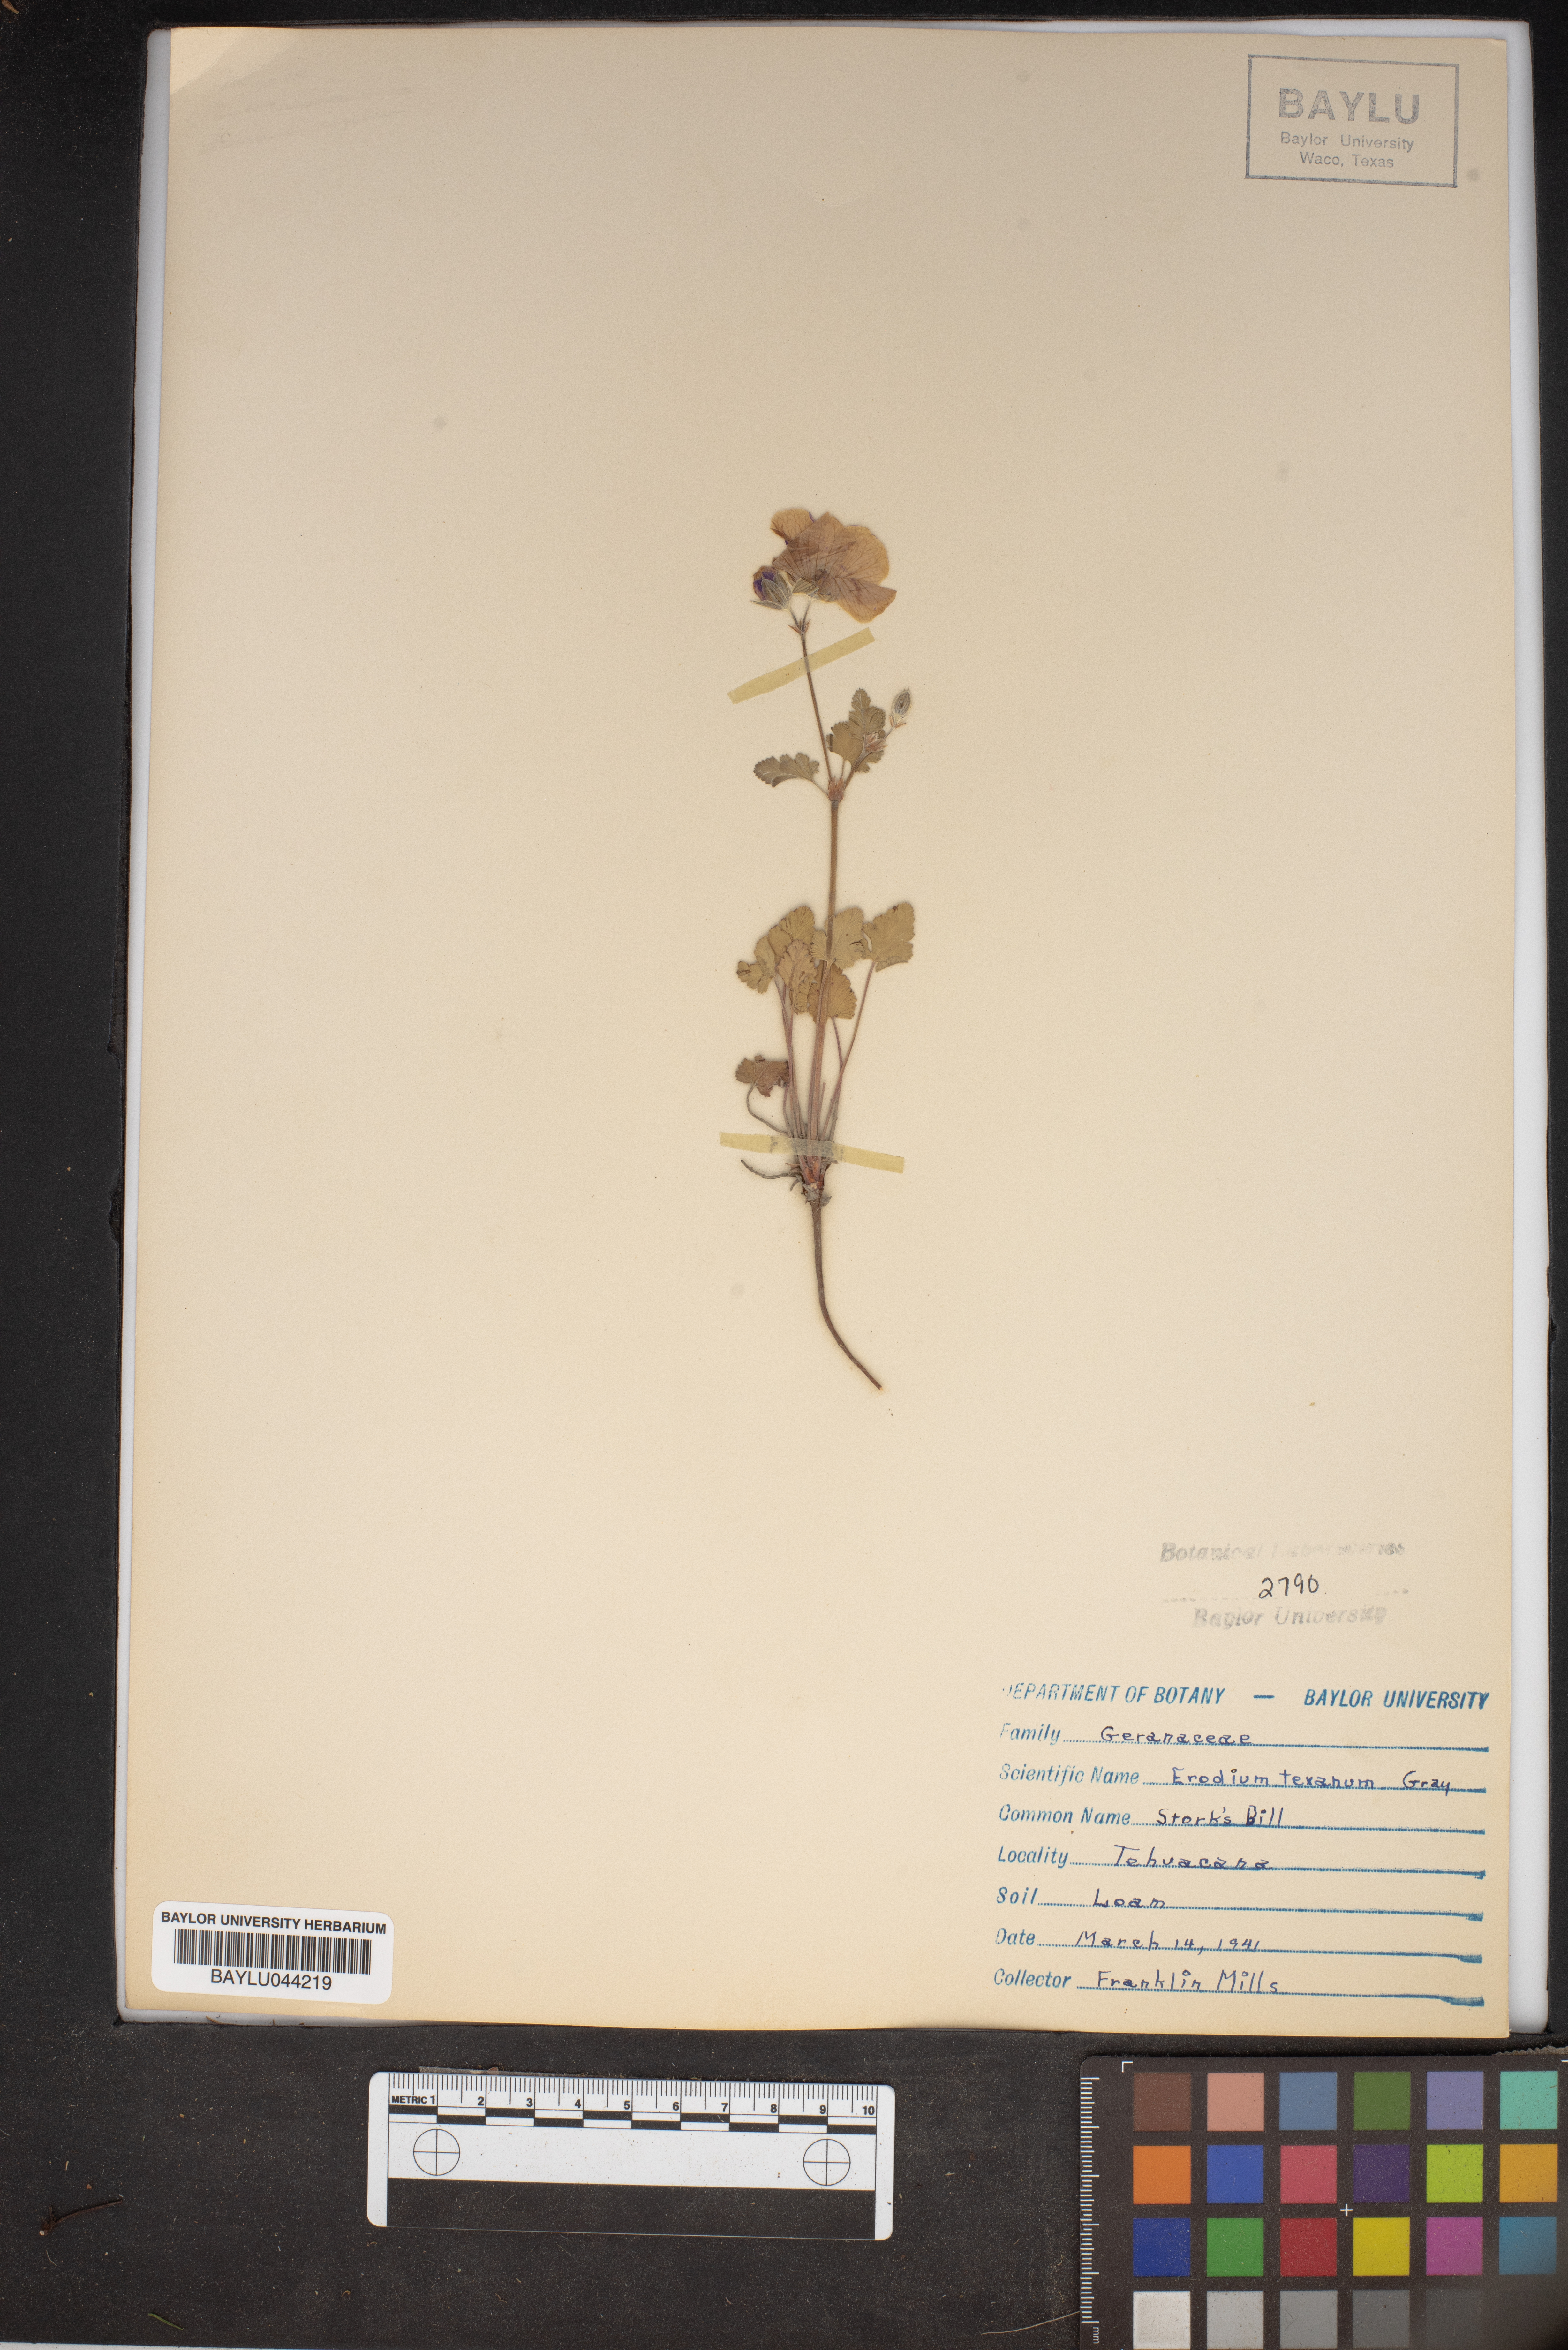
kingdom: Plantae
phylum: Tracheophyta
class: Magnoliopsida
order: Geraniales
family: Geraniaceae
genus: Erodium
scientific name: Erodium texanum
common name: Texas stork's-bill
